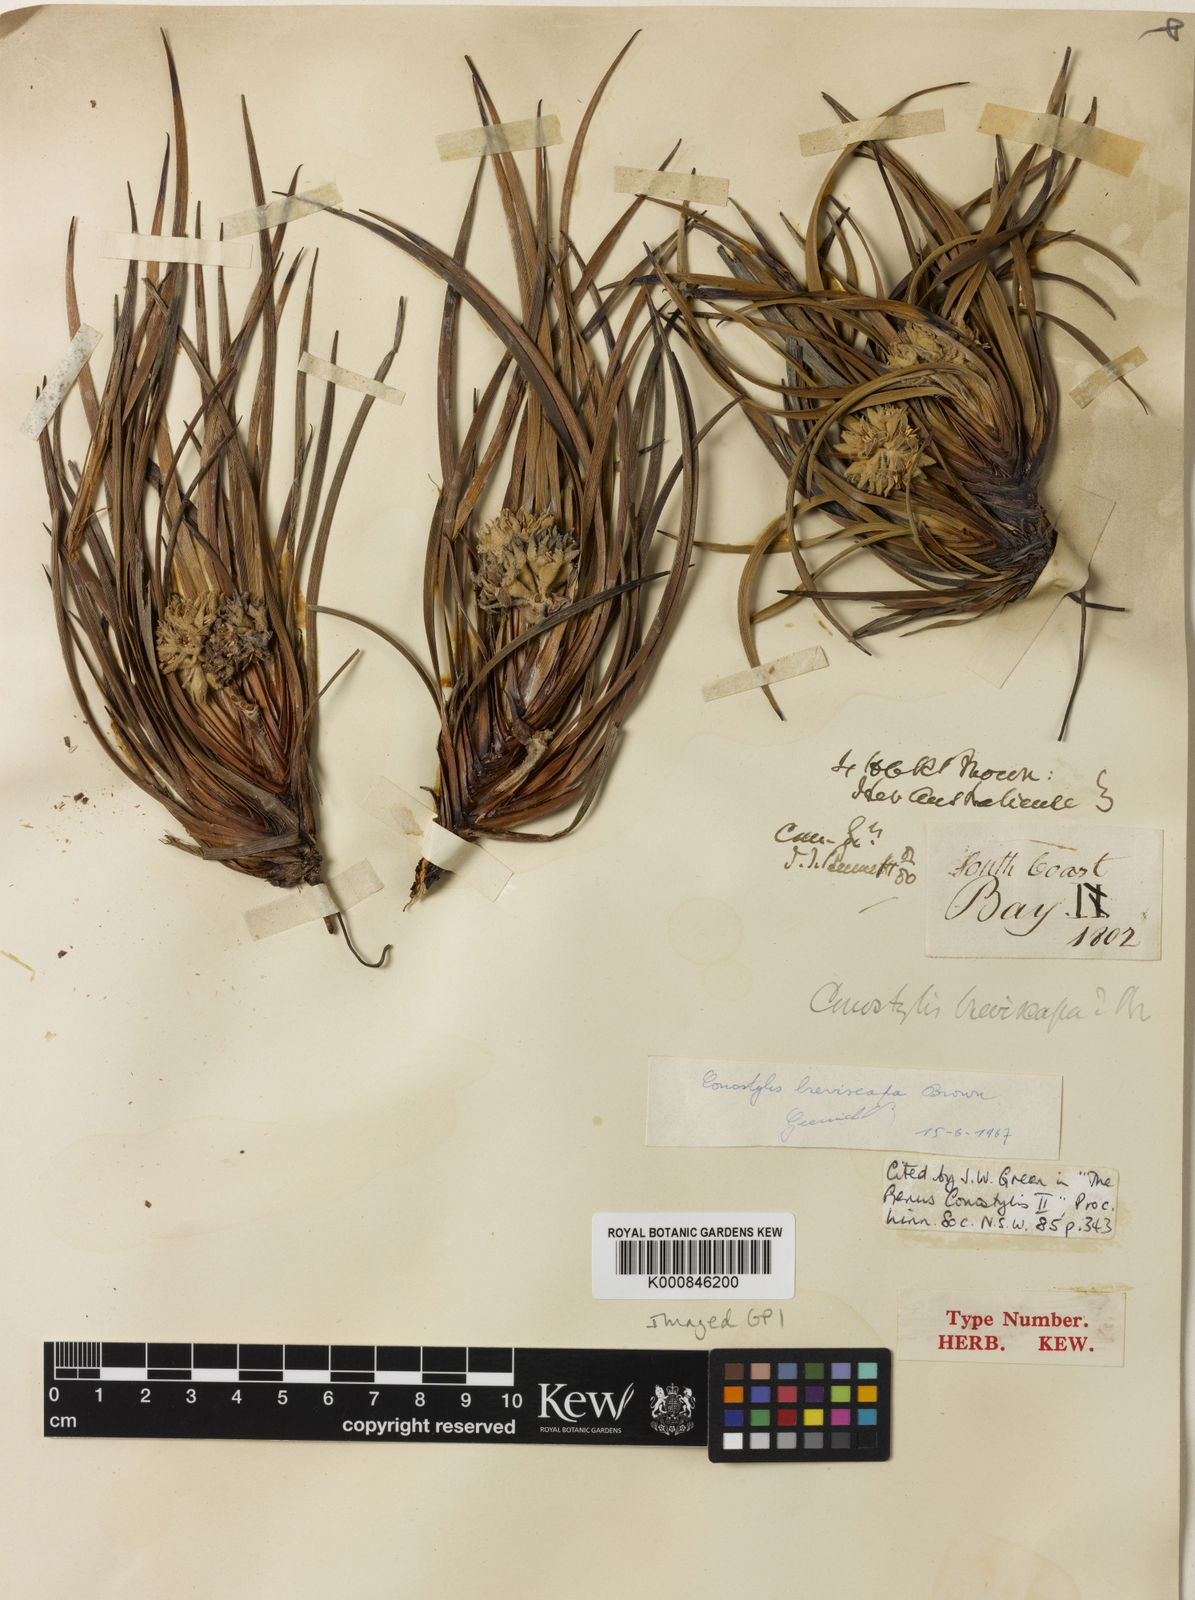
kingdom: Plantae
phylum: Tracheophyta
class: Liliopsida
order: Commelinales
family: Haemodoraceae
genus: Conostylis
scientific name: Conostylis breviscapa
